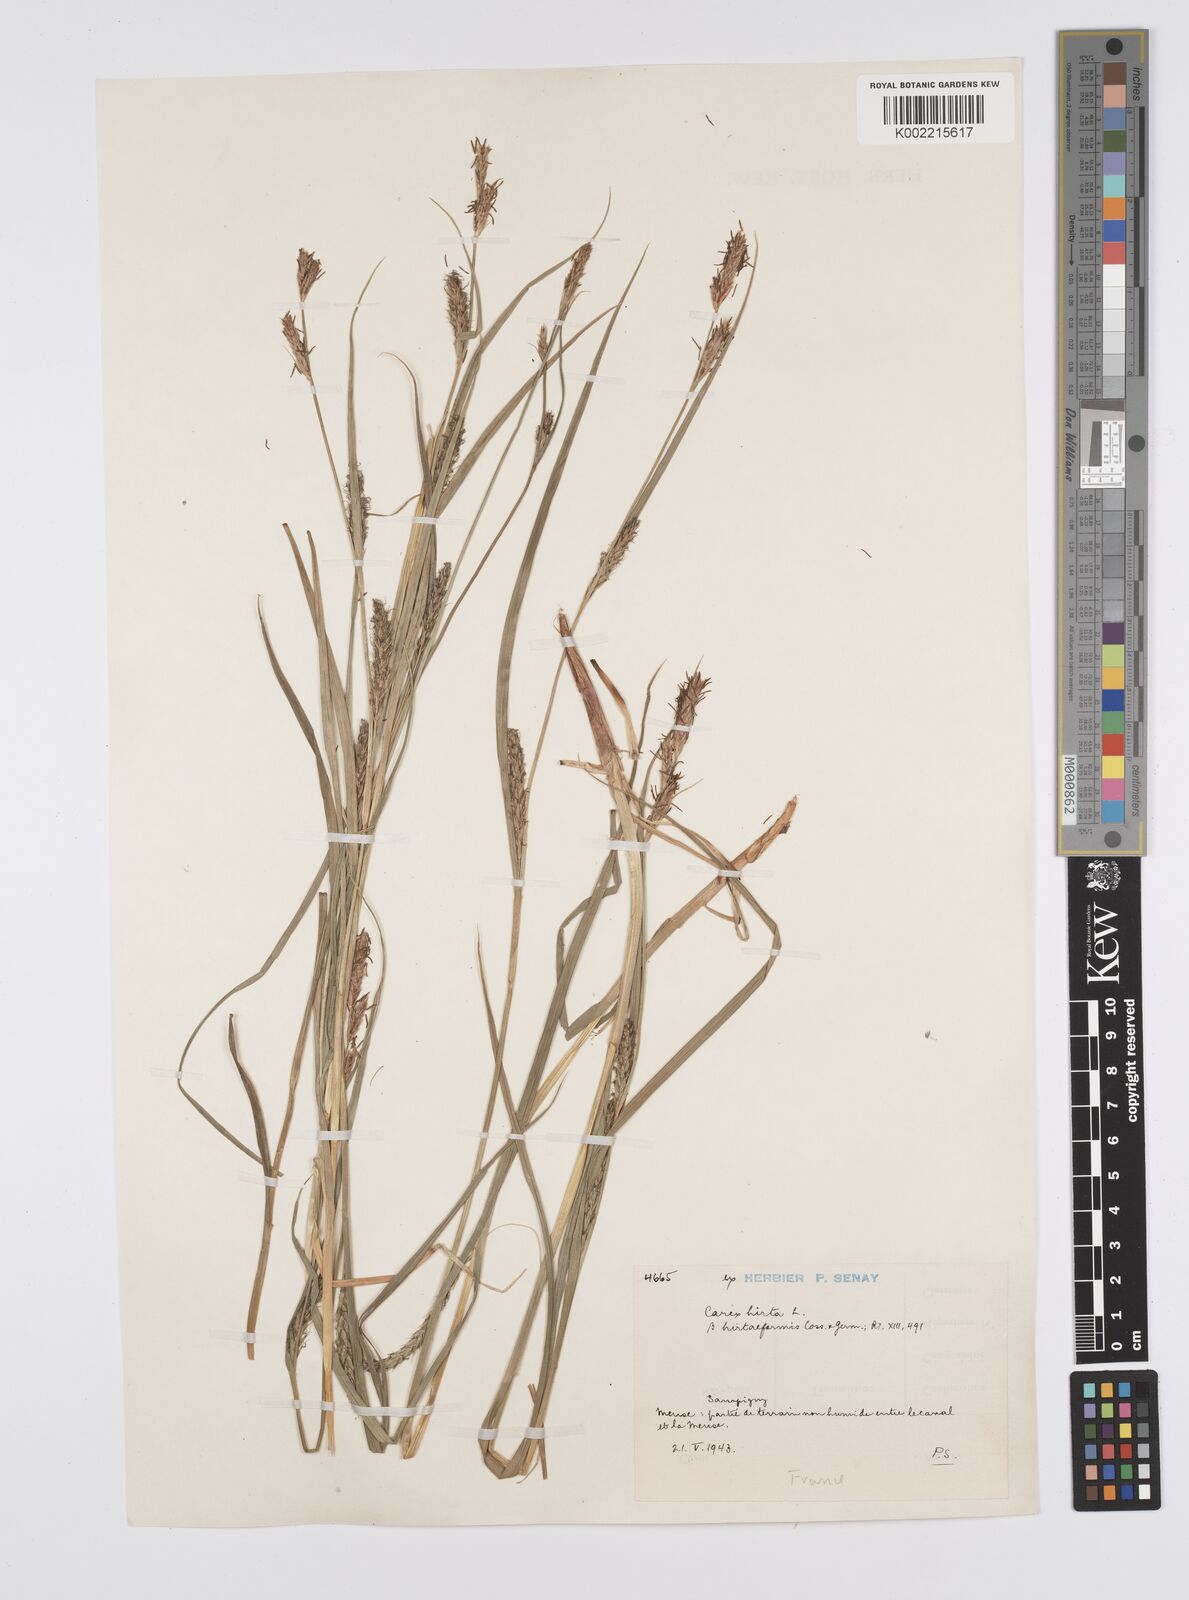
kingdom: Plantae
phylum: Tracheophyta
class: Liliopsida
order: Poales
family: Cyperaceae
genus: Carex
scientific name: Carex hirta
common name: Hairy sedge
